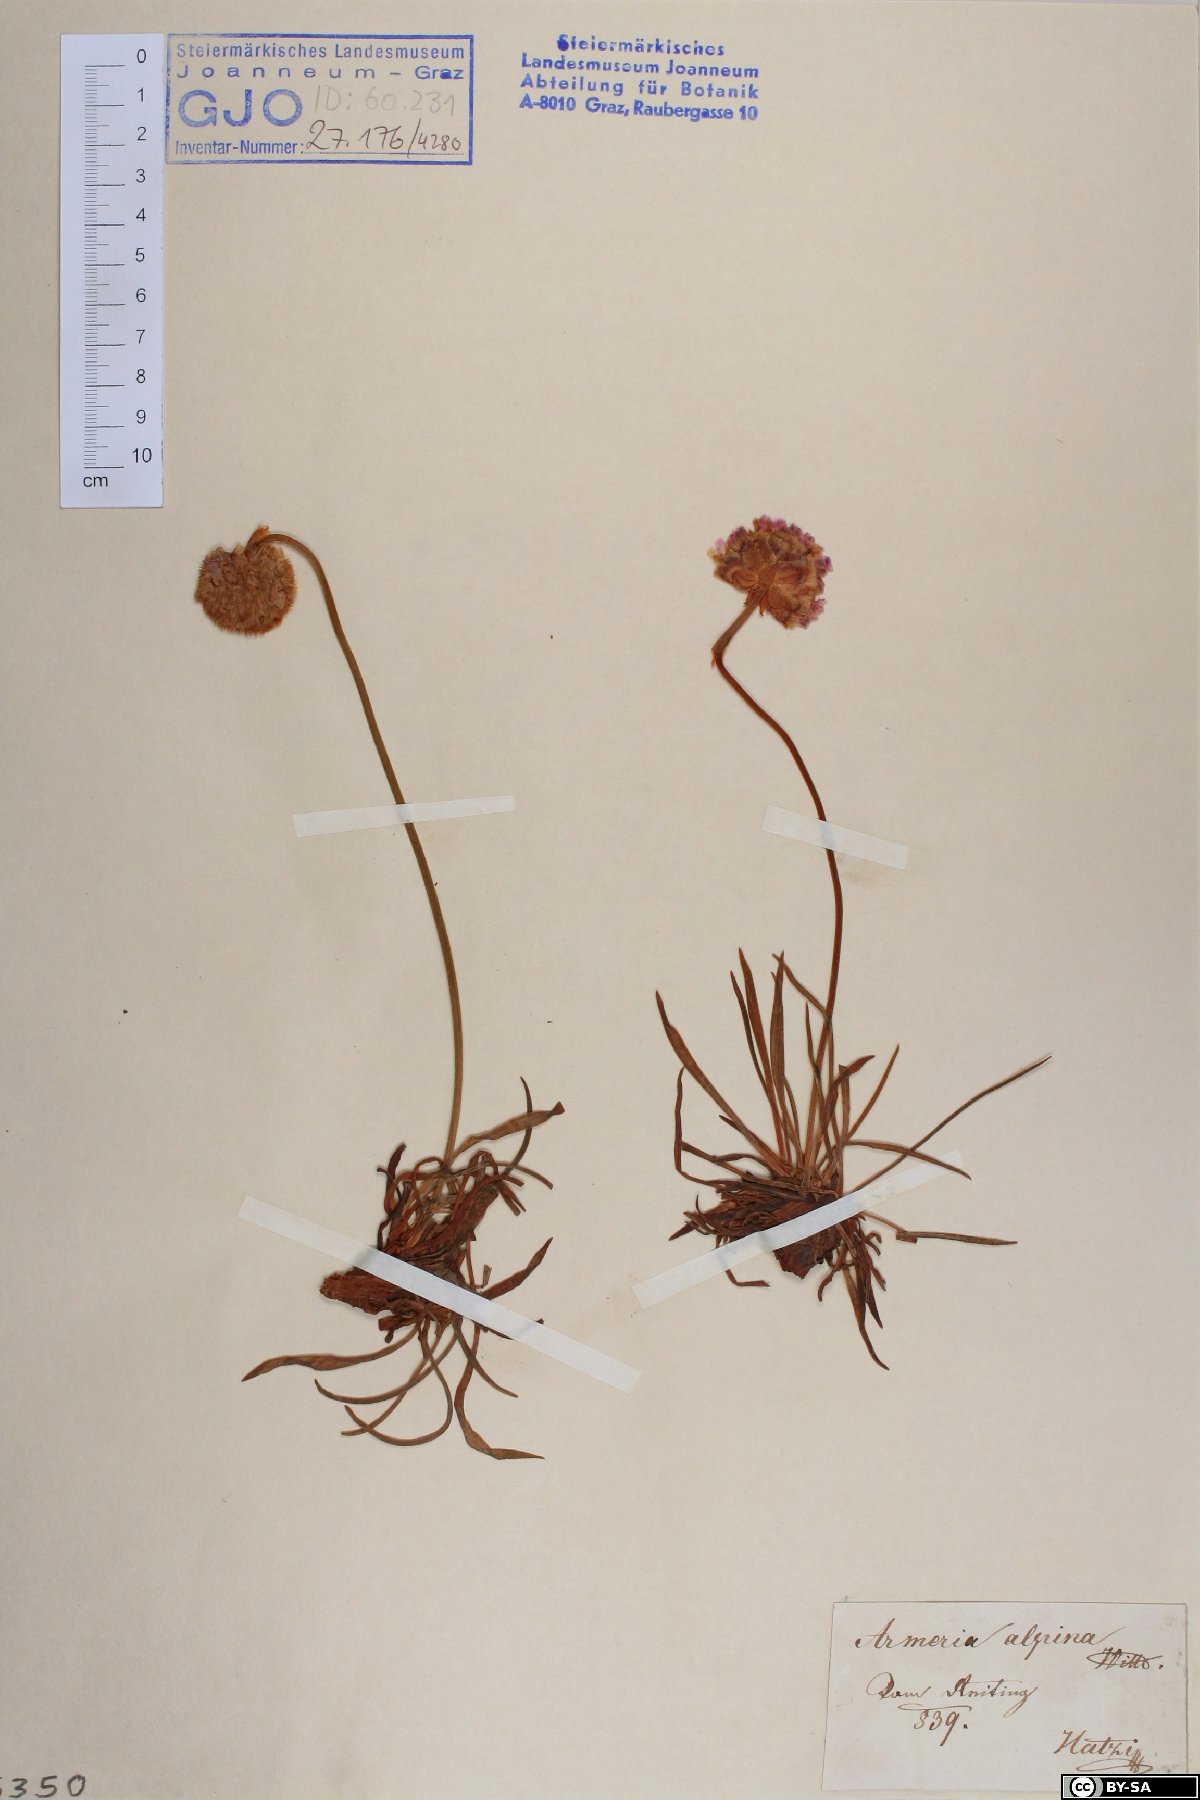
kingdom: Plantae
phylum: Tracheophyta
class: Magnoliopsida
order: Caryophyllales
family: Plumbaginaceae
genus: Armeria
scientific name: Armeria alpina
